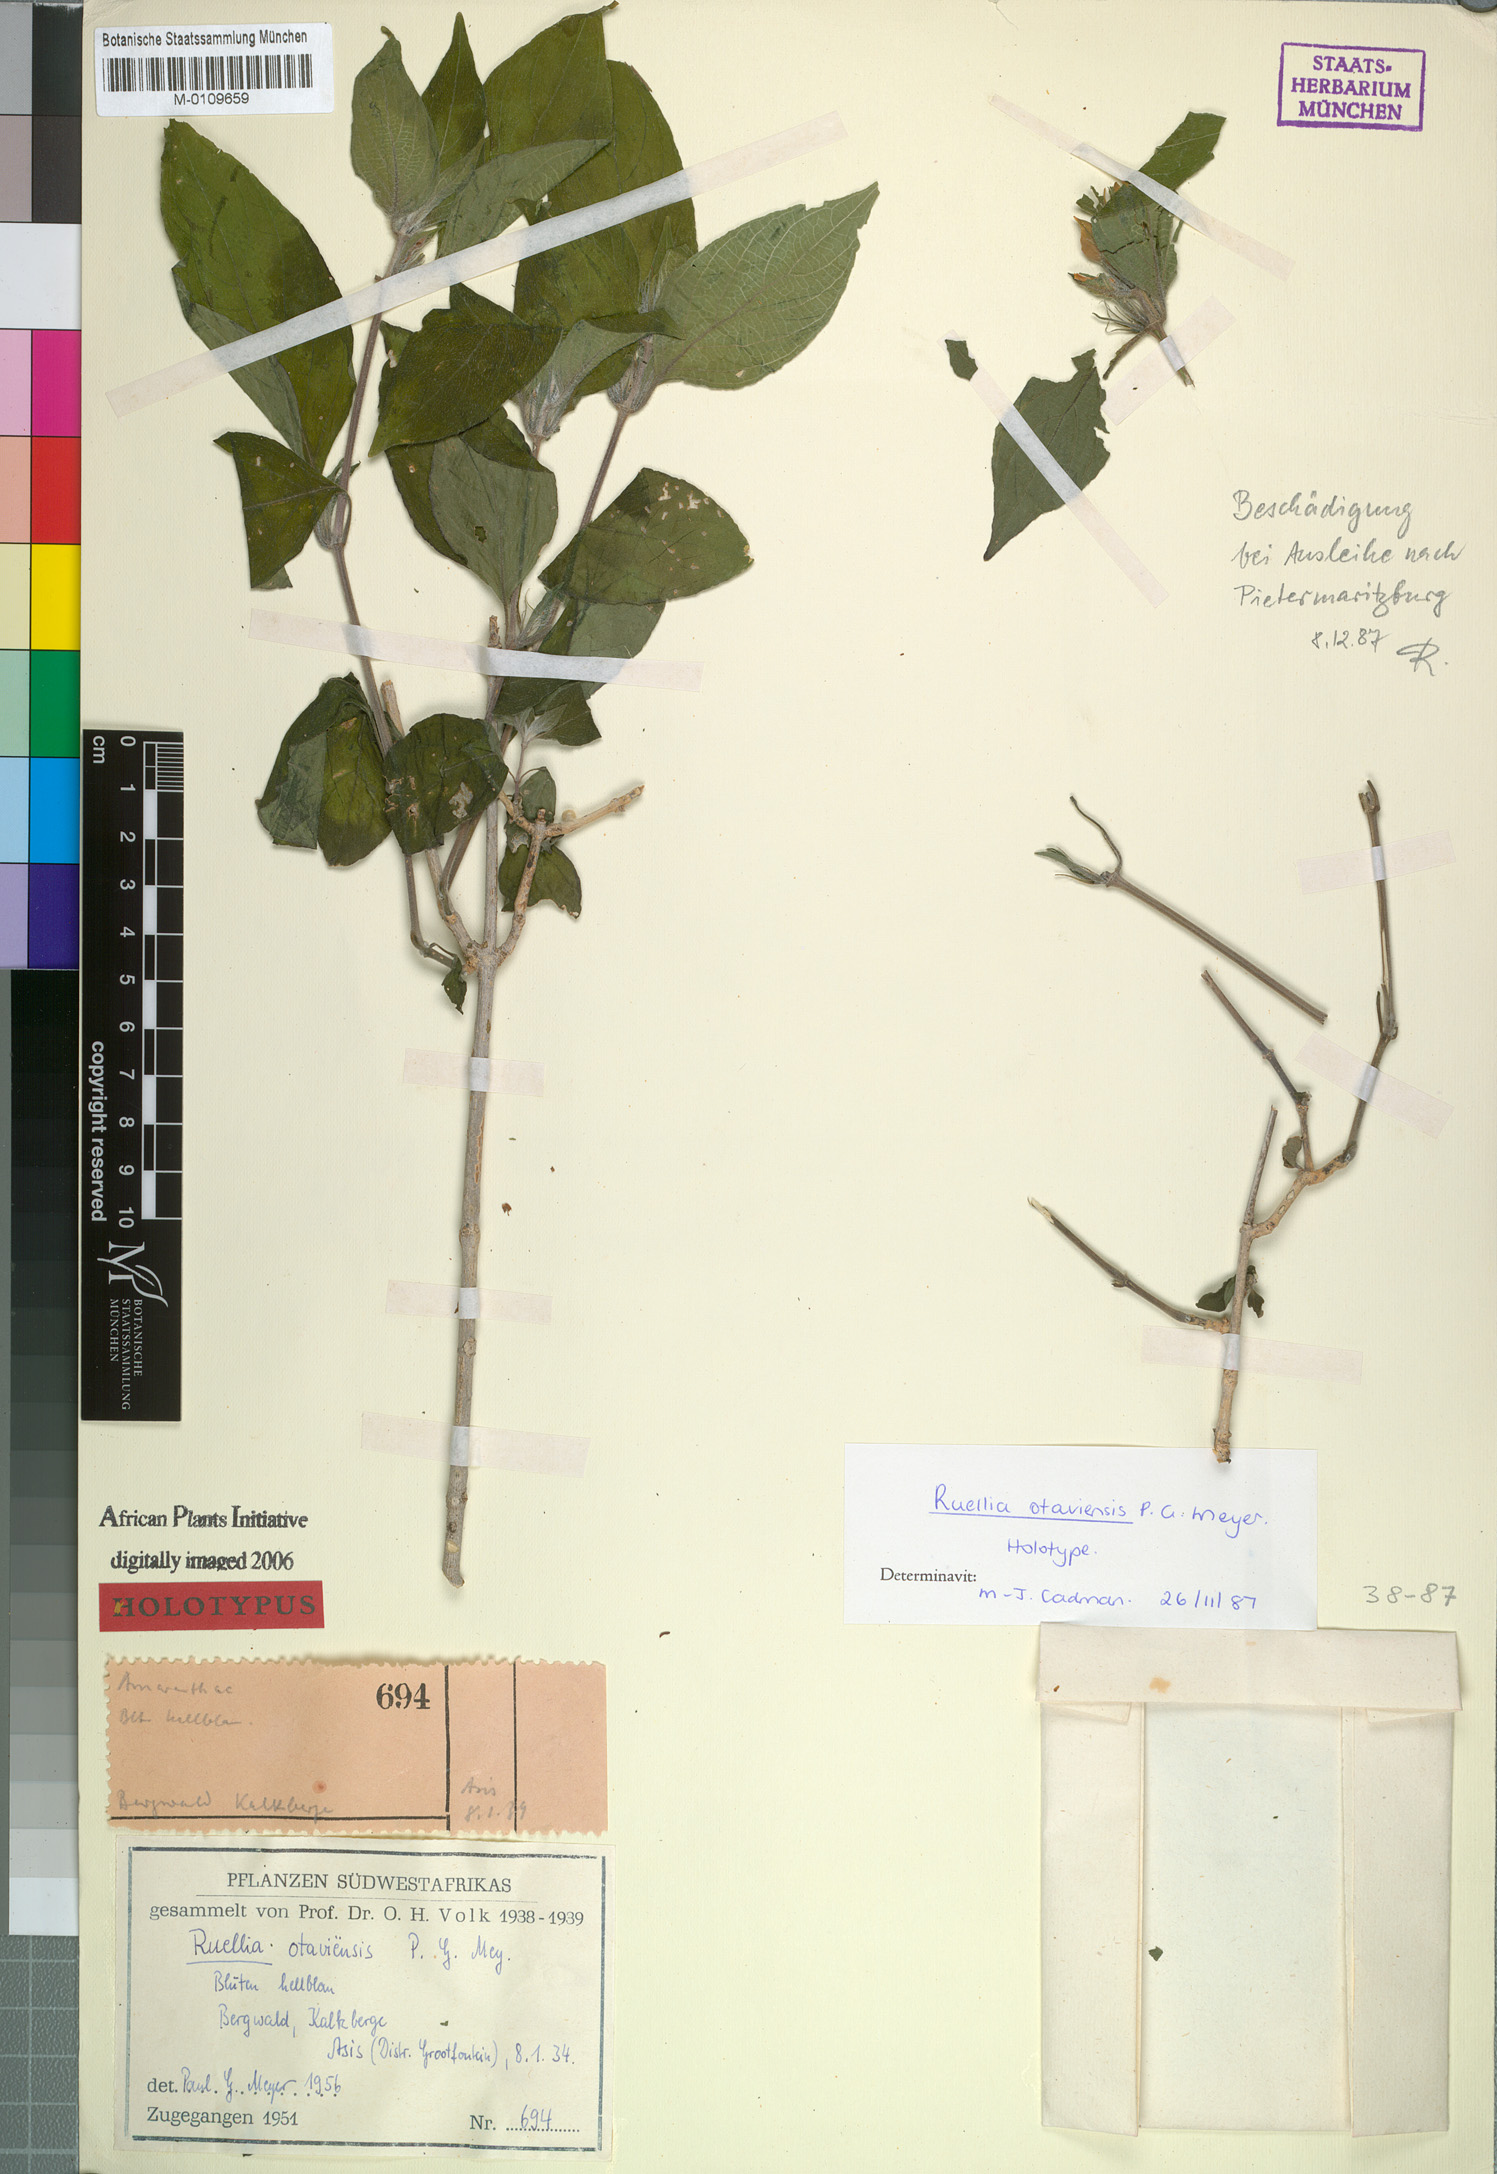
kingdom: Plantae
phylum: Tracheophyta
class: Magnoliopsida
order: Lamiales
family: Acanthaceae
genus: Ruellia
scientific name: Ruellia prostrata
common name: Prostrate wild petunia
